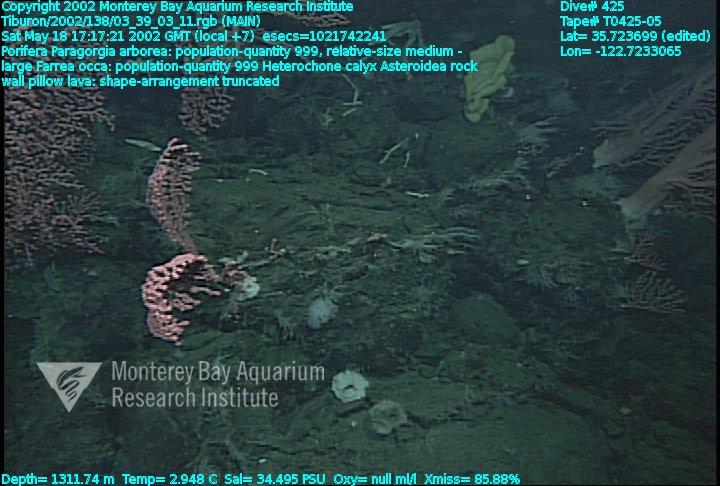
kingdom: Animalia
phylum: Porifera
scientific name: Porifera
